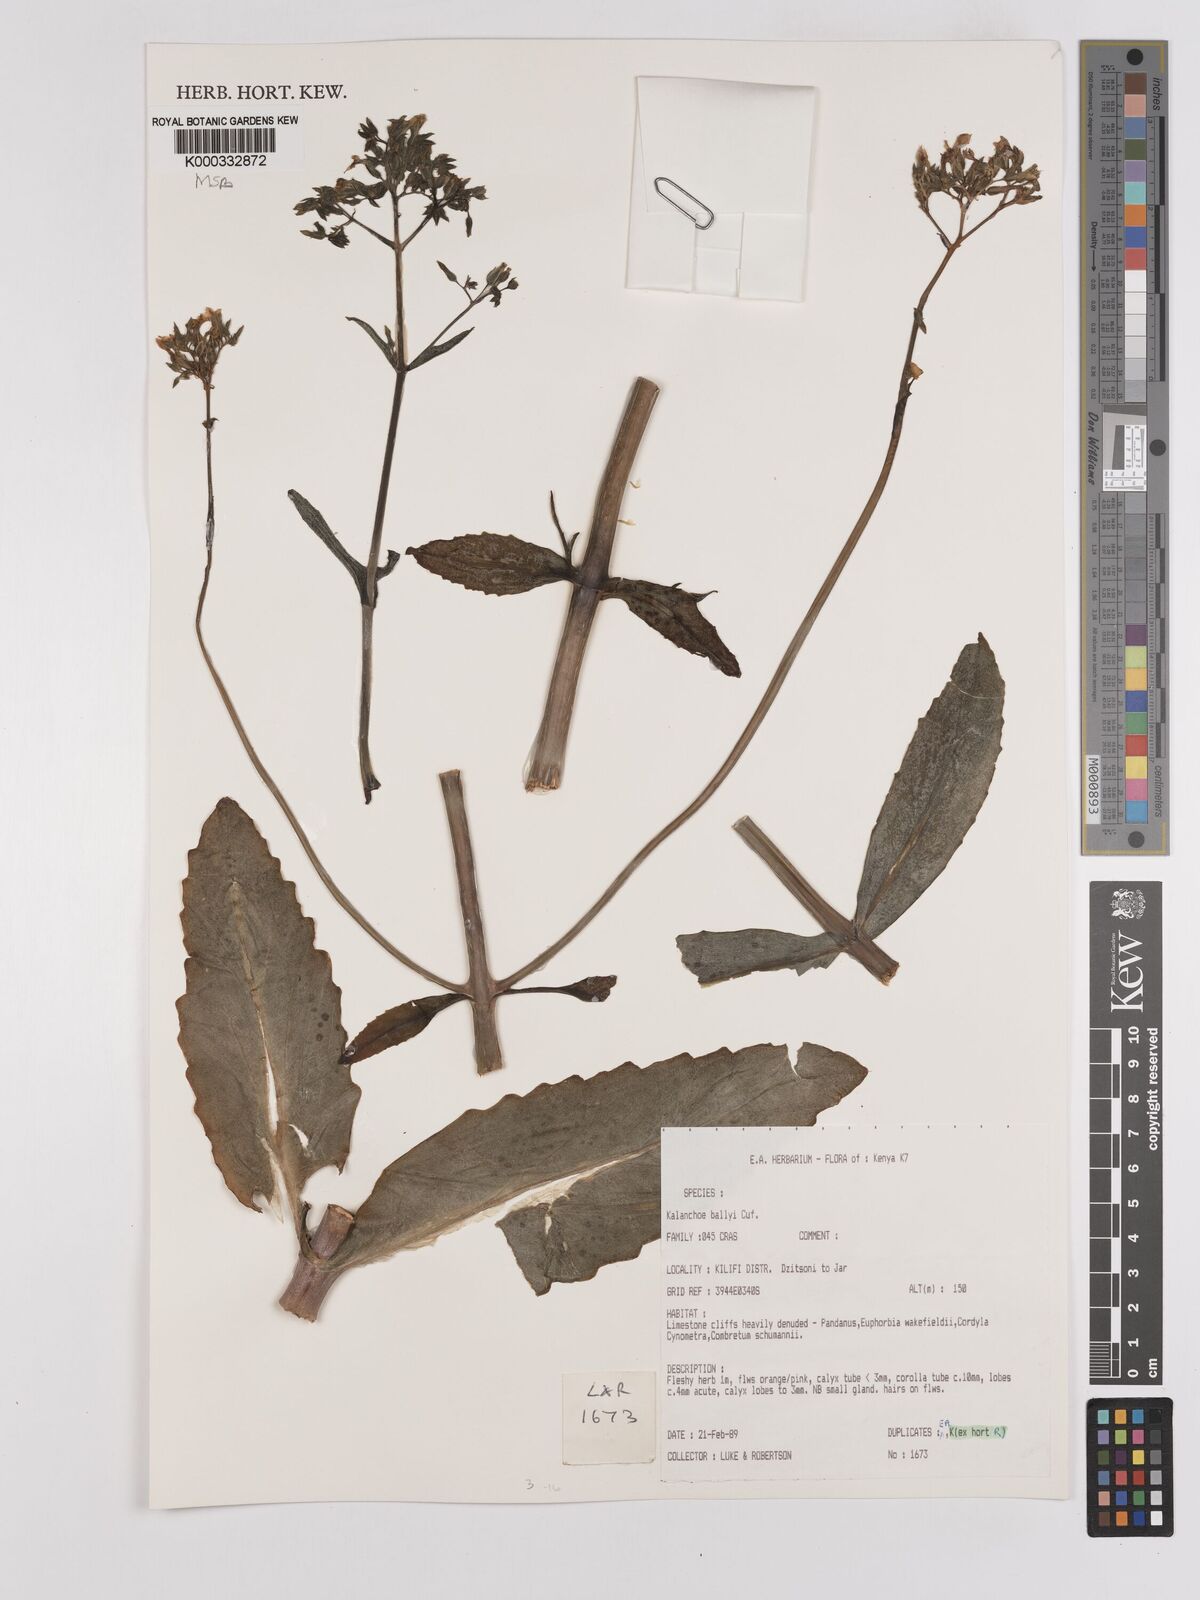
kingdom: Plantae
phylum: Tracheophyta
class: Magnoliopsida
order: Saxifragales
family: Crassulaceae
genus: Kalanchoe
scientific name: Kalanchoe ballyi
